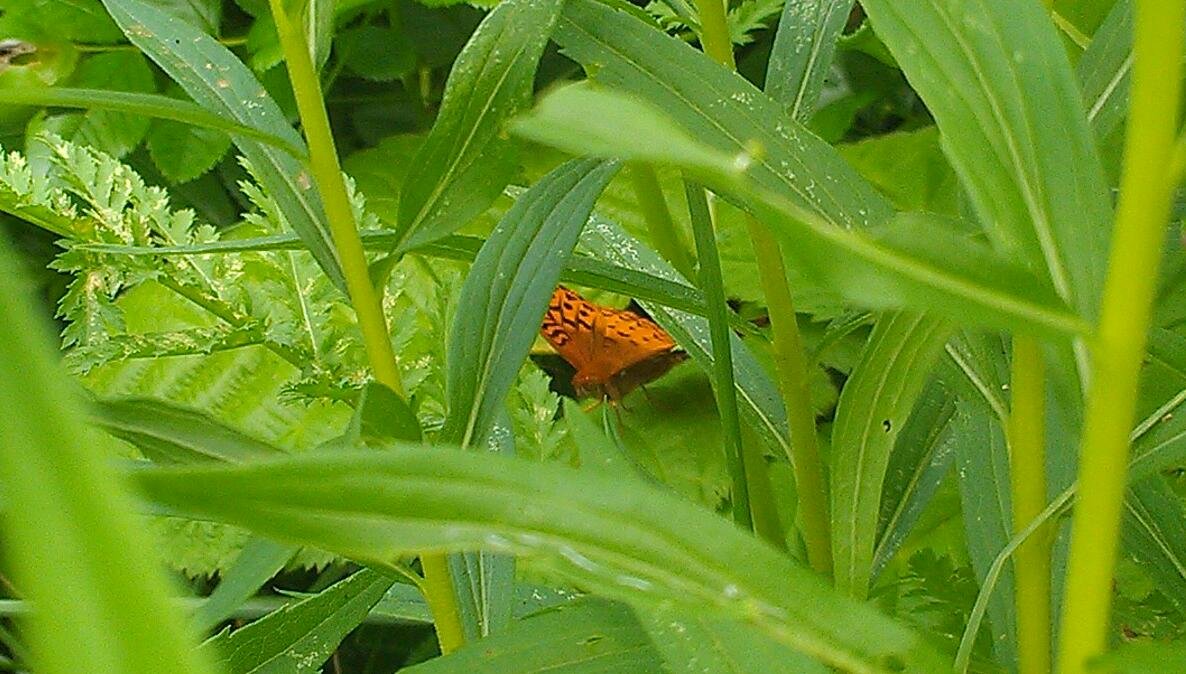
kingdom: Animalia
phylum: Arthropoda
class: Insecta
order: Lepidoptera
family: Nymphalidae
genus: Speyeria
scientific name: Speyeria cybele
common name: Great Spangled Fritillary
